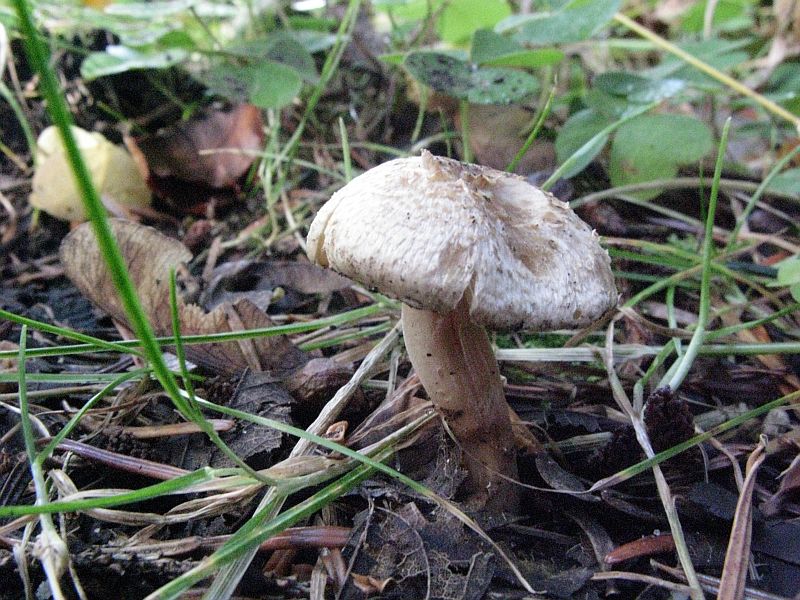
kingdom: Fungi
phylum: Basidiomycota
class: Agaricomycetes
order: Agaricales
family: Inocybaceae
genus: Inocybe
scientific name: Inocybe sindonia
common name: bleg trævlhat
